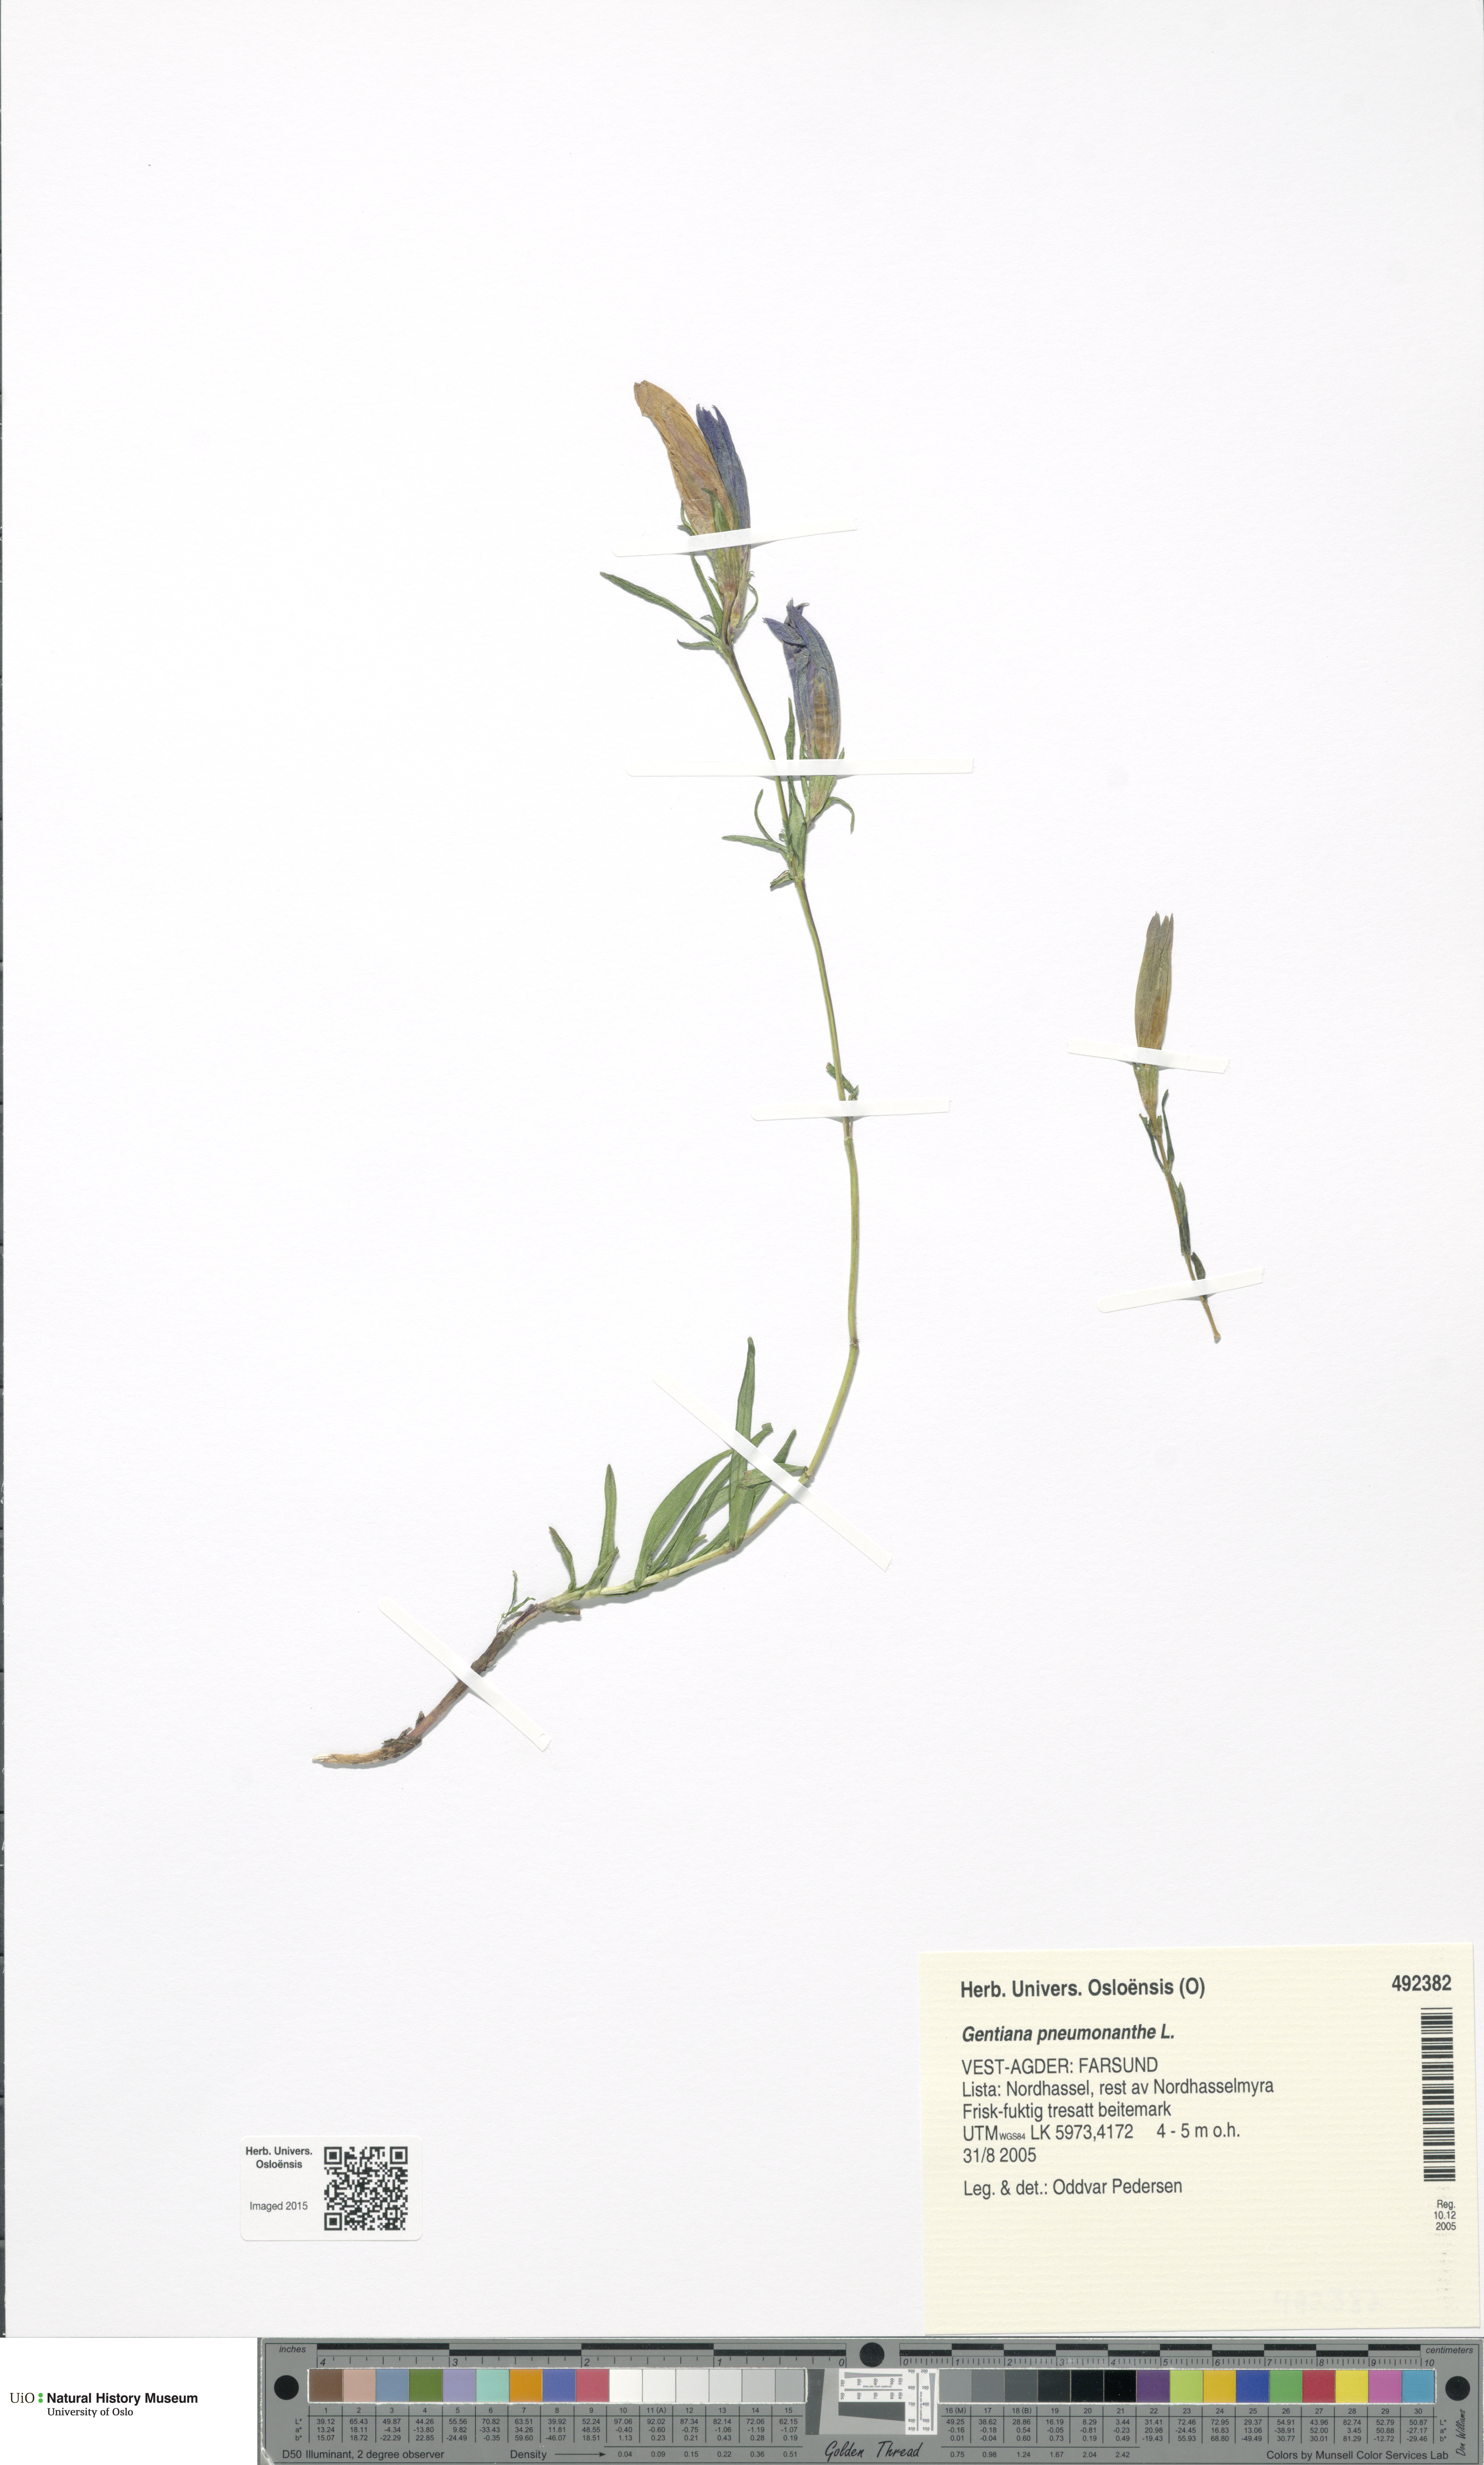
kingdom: Plantae
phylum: Tracheophyta
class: Magnoliopsida
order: Gentianales
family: Gentianaceae
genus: Gentiana
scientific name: Gentiana pneumonanthe
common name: Marsh gentian
